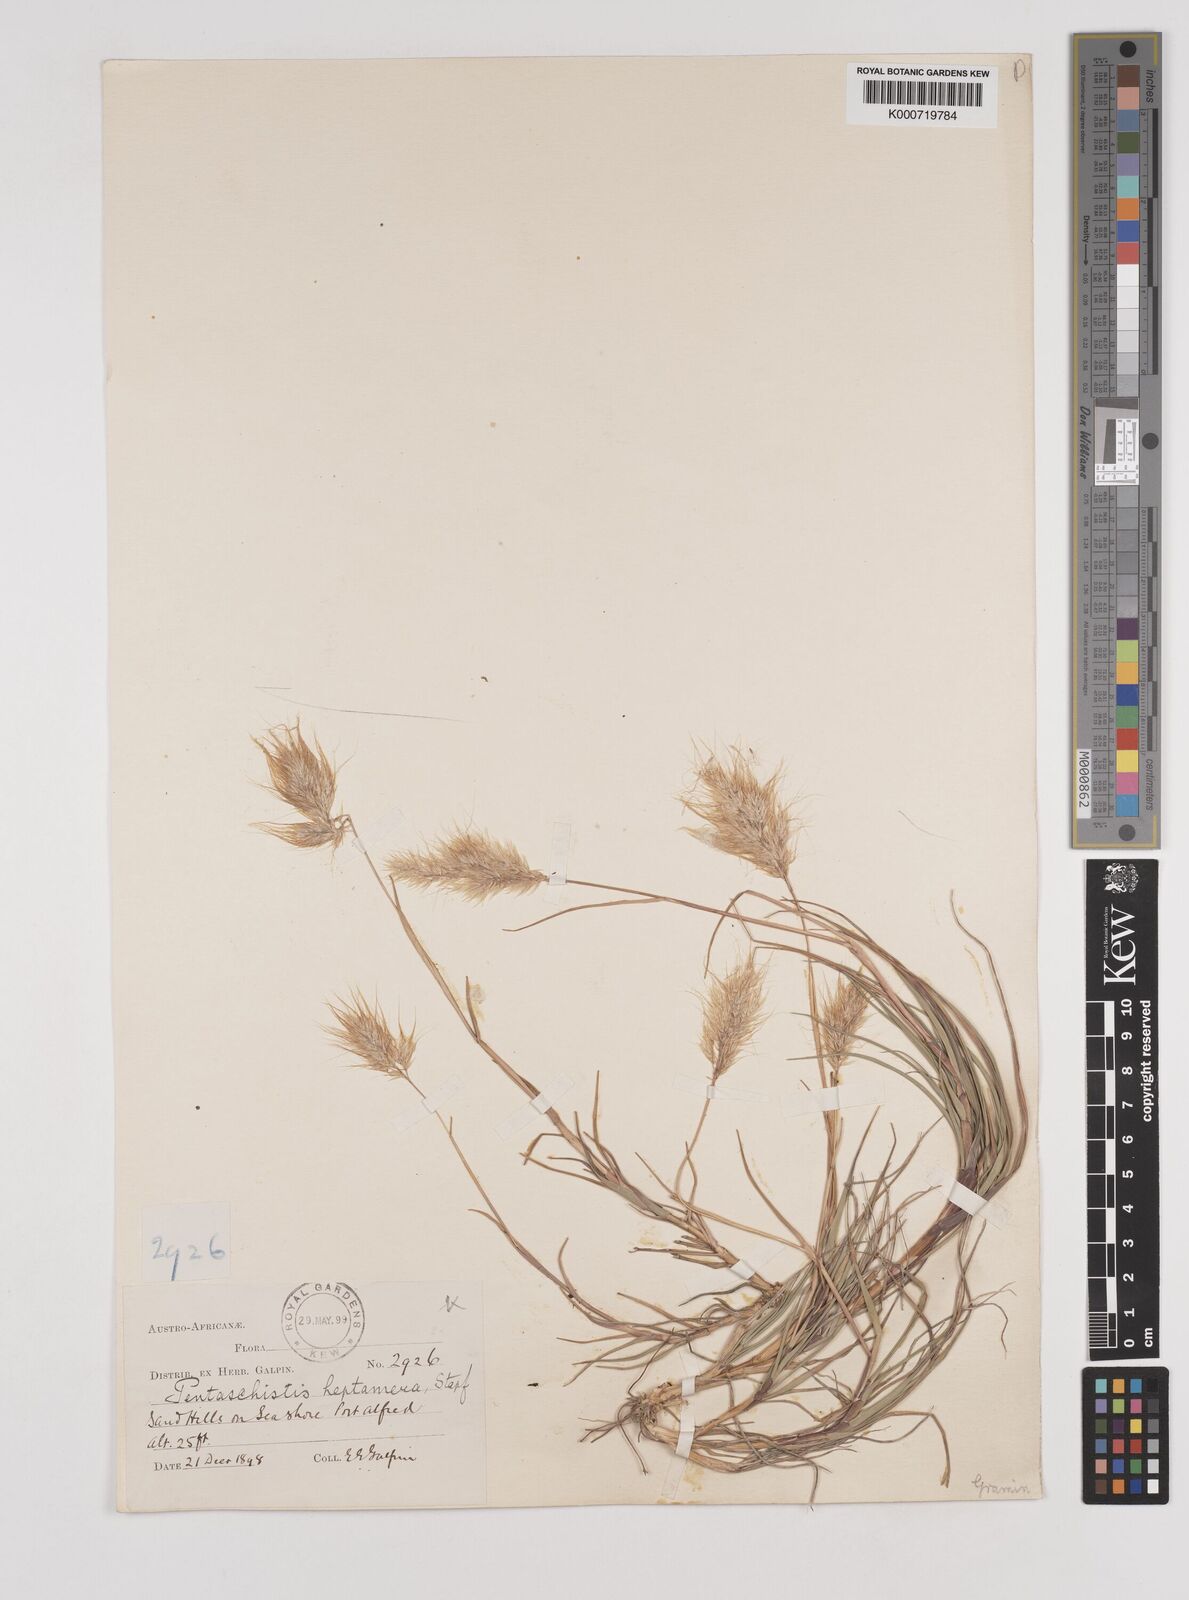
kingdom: Plantae
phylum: Tracheophyta
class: Liliopsida
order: Poales
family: Poaceae
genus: Pentameris
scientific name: Pentameris heptamera
